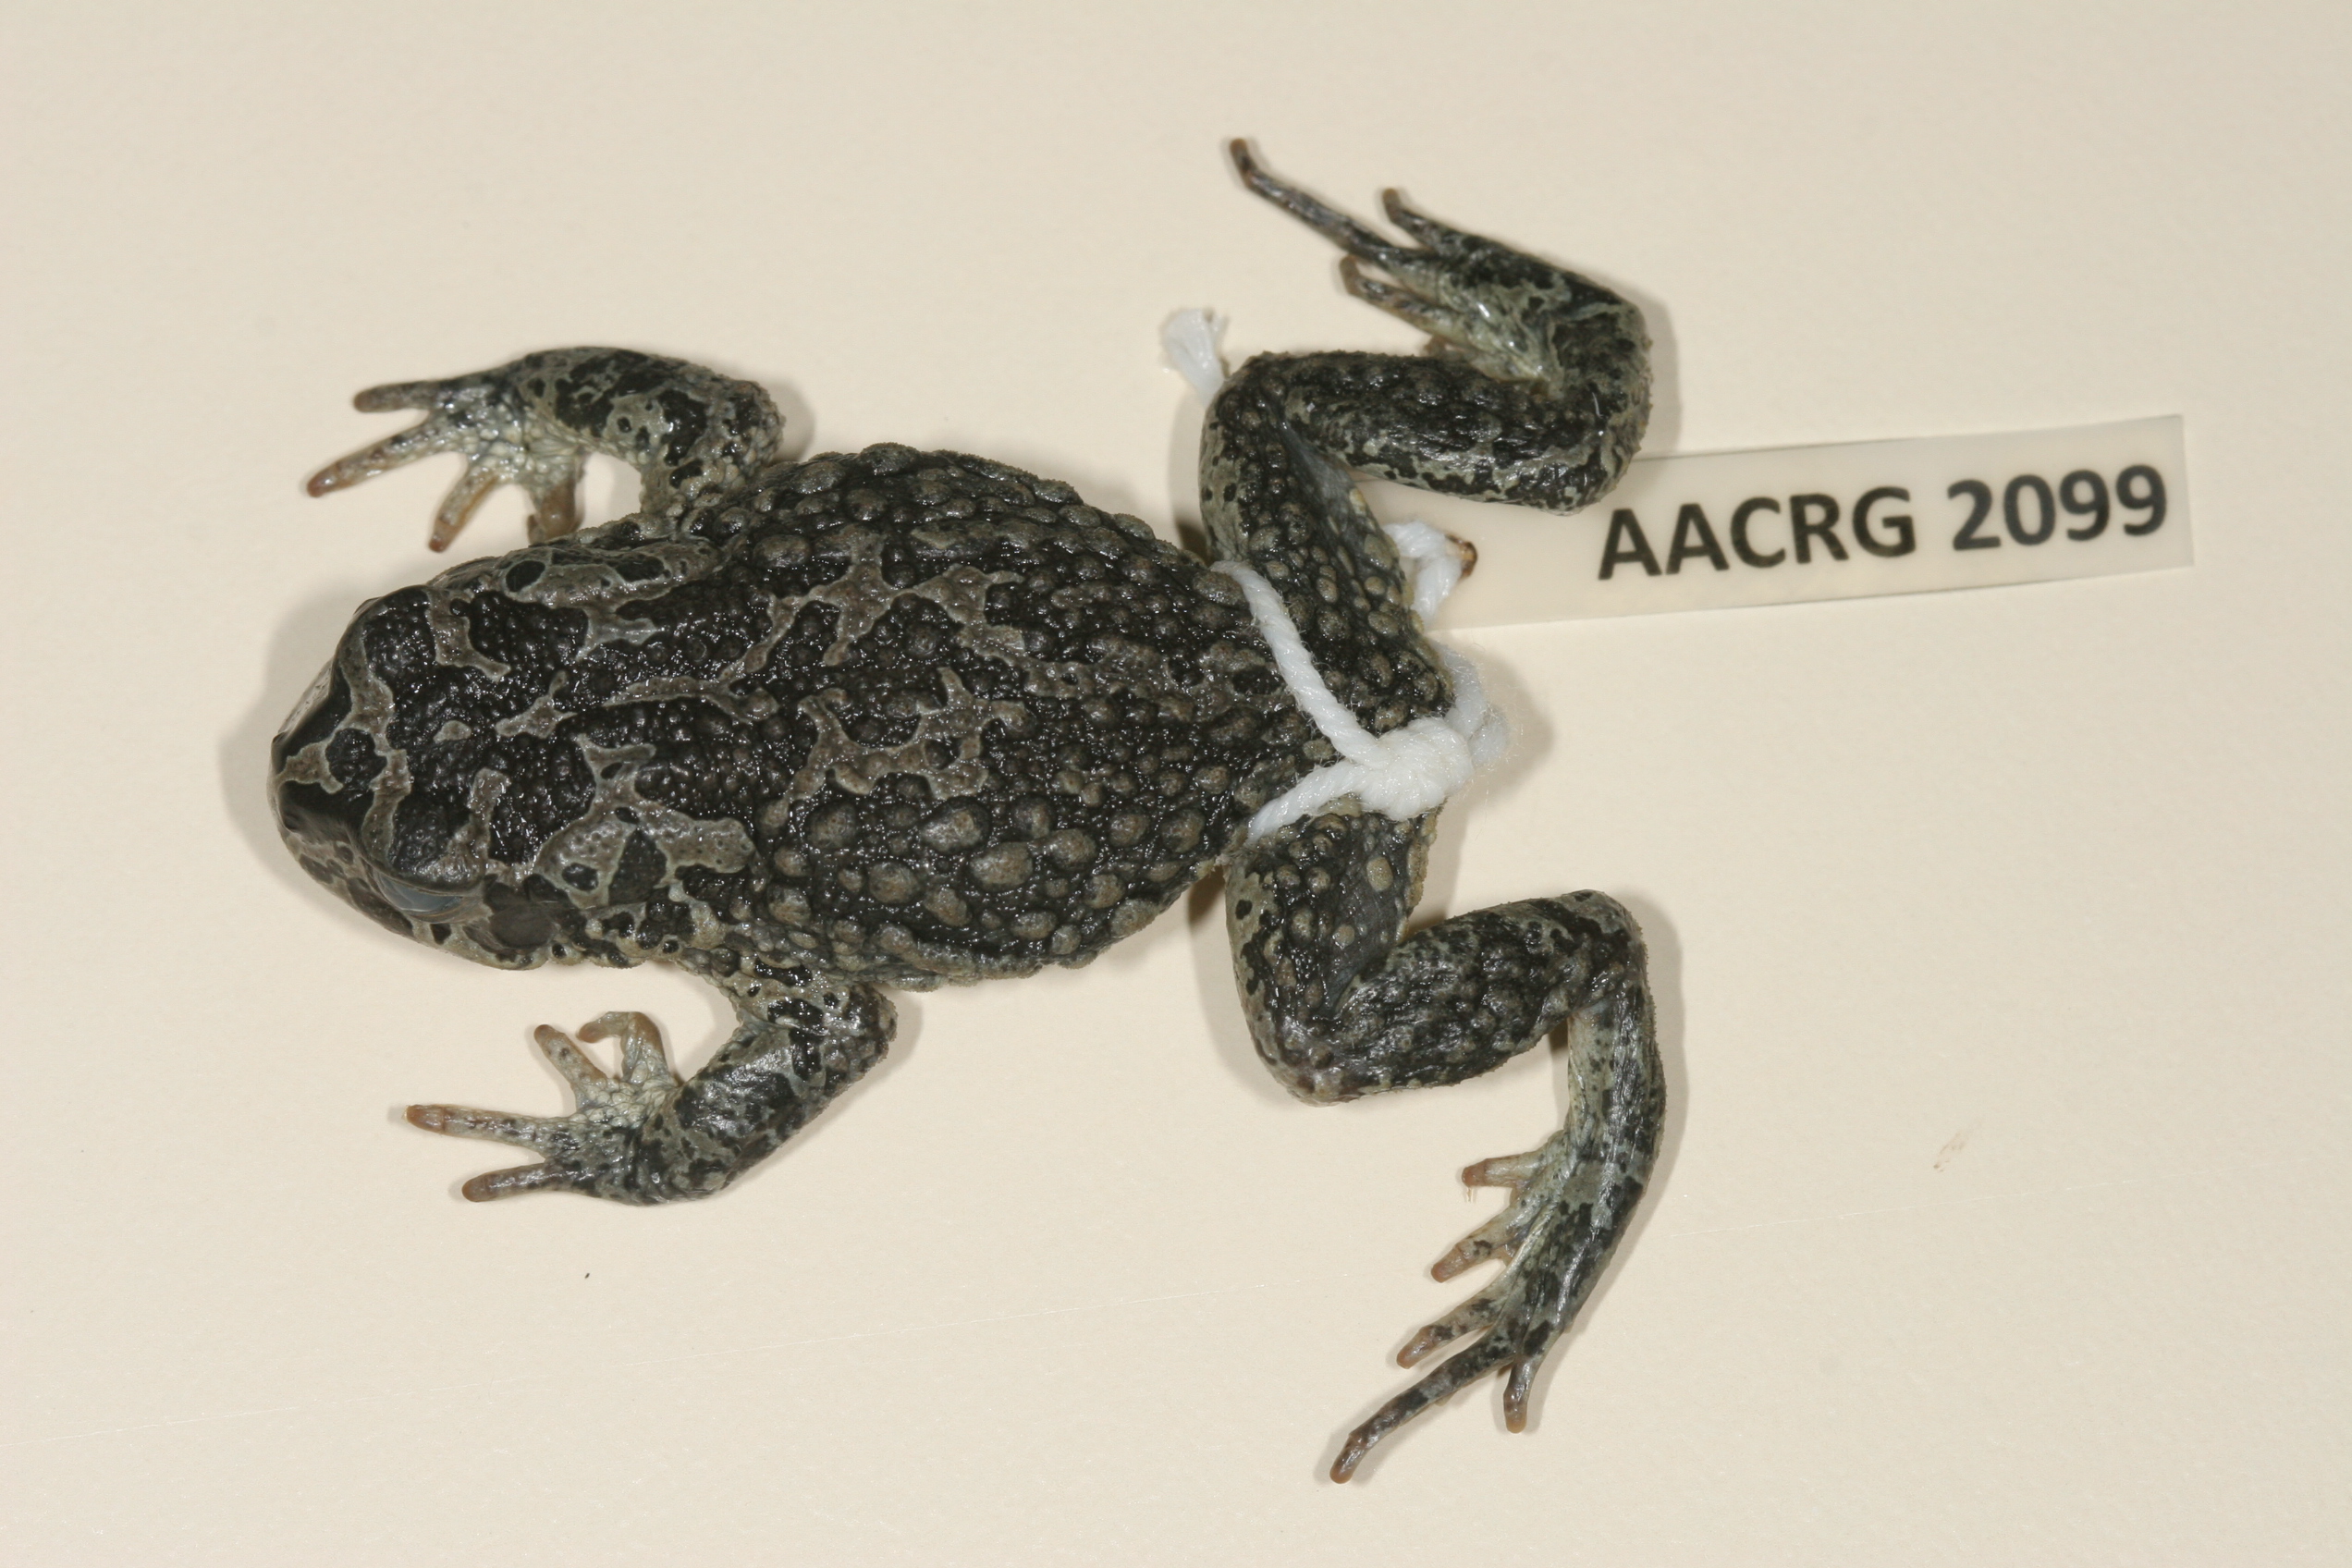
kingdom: Animalia
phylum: Chordata
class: Amphibia
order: Anura
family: Bufonidae
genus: Vandijkophrynus
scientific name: Vandijkophrynus gariepensis
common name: Gariep toad
